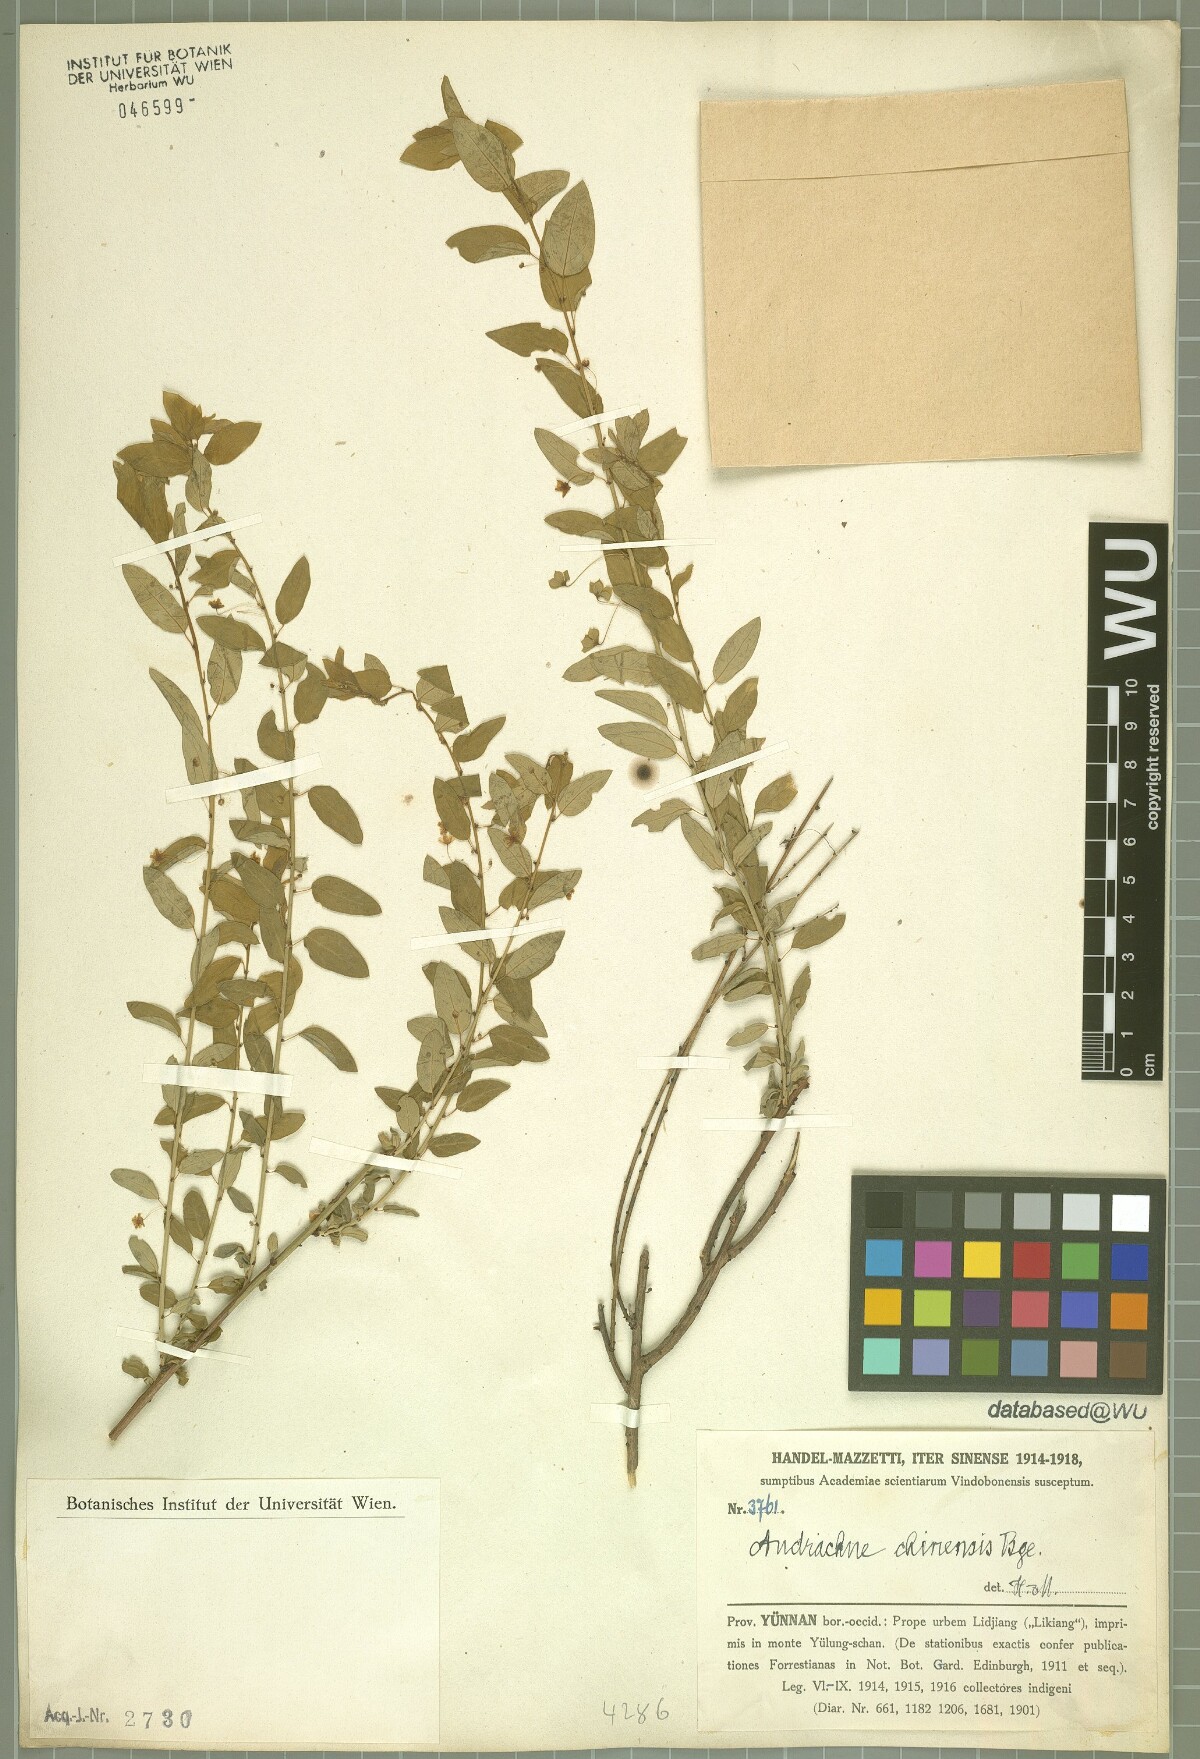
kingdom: Plantae
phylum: Tracheophyta
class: Magnoliopsida
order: Malpighiales
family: Phyllanthaceae
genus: Leptopus
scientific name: Leptopus chinensis
